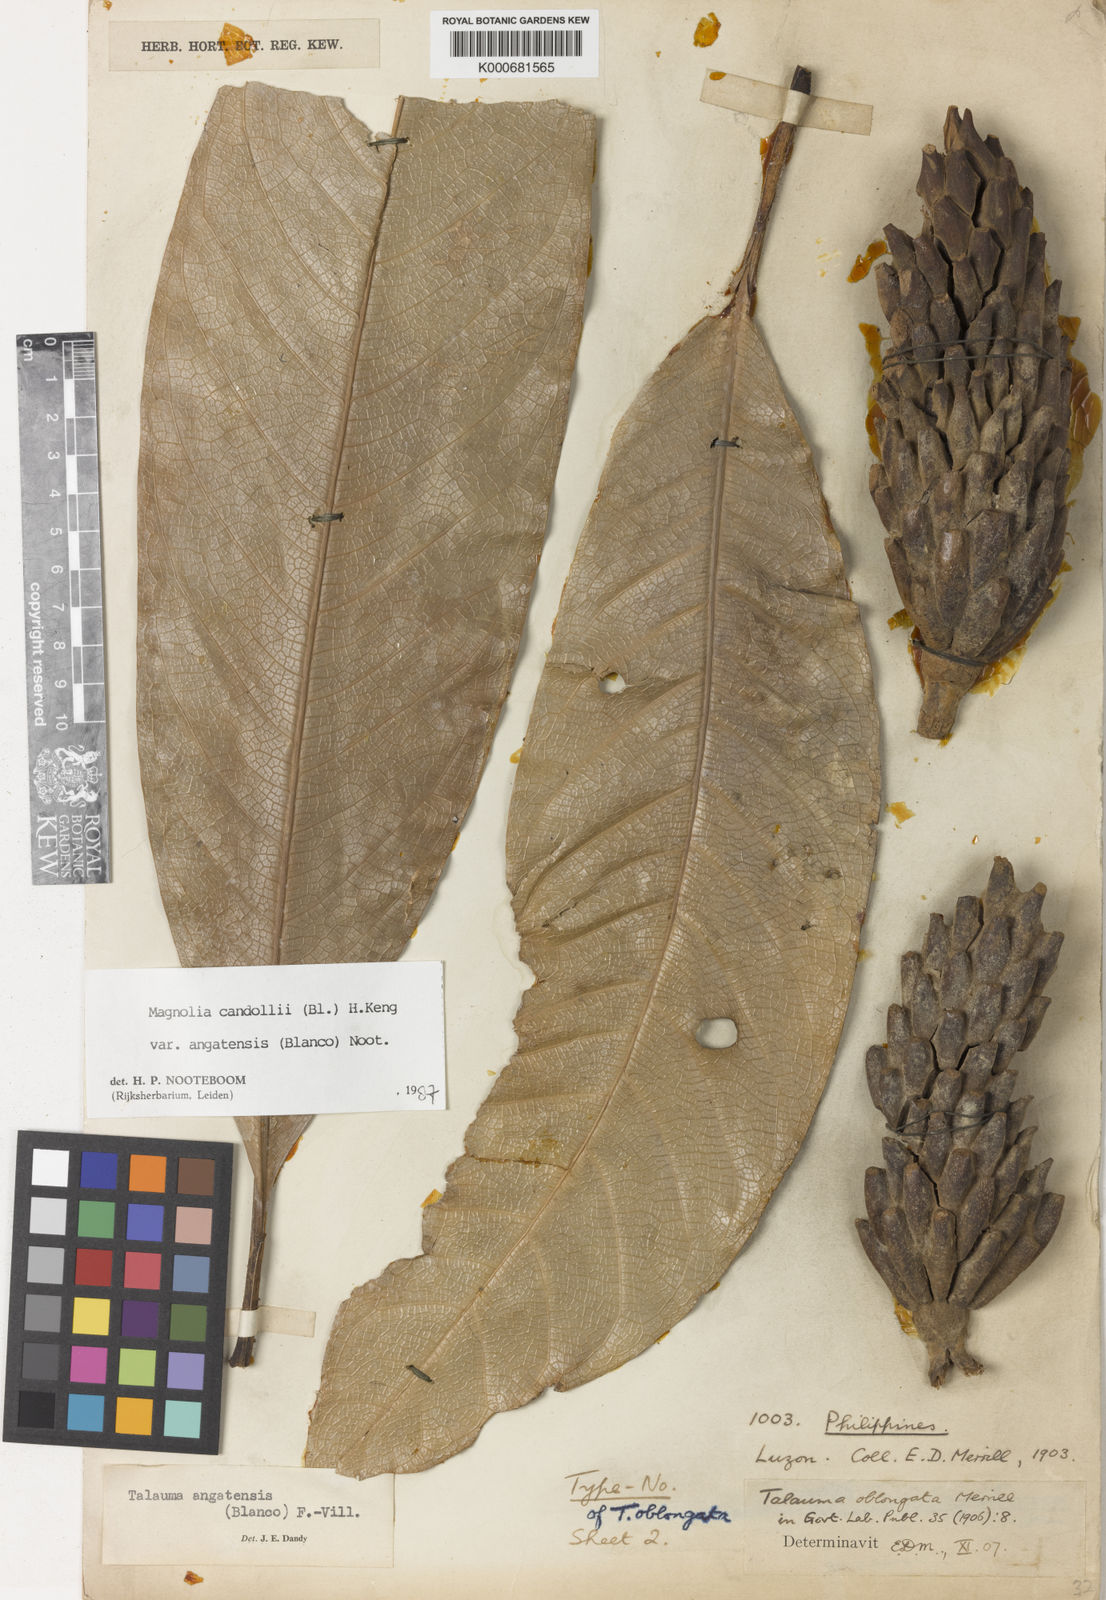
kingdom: Plantae
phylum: Tracheophyta
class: Magnoliopsida
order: Magnoliales
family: Magnoliaceae
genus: Magnolia
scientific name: Magnolia angatensis
